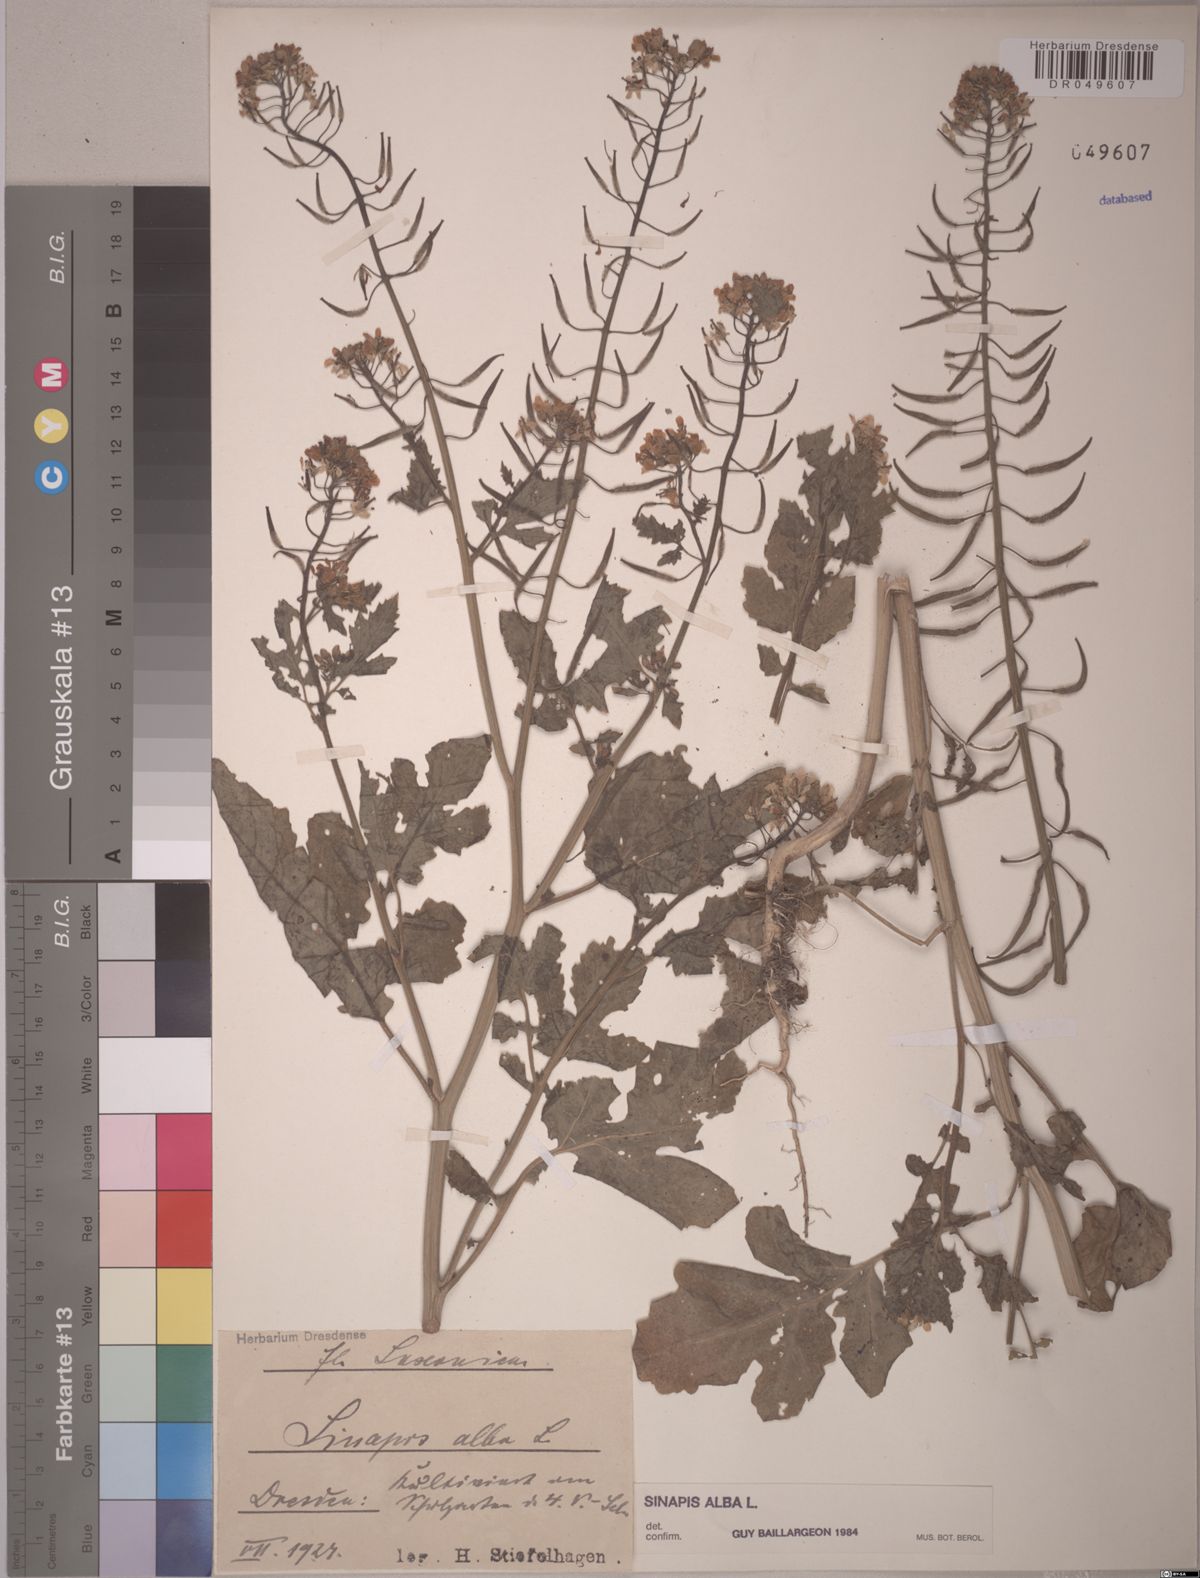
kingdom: Plantae
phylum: Tracheophyta
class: Magnoliopsida
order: Brassicales
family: Brassicaceae
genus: Sinapis
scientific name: Sinapis alba
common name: White mustard
